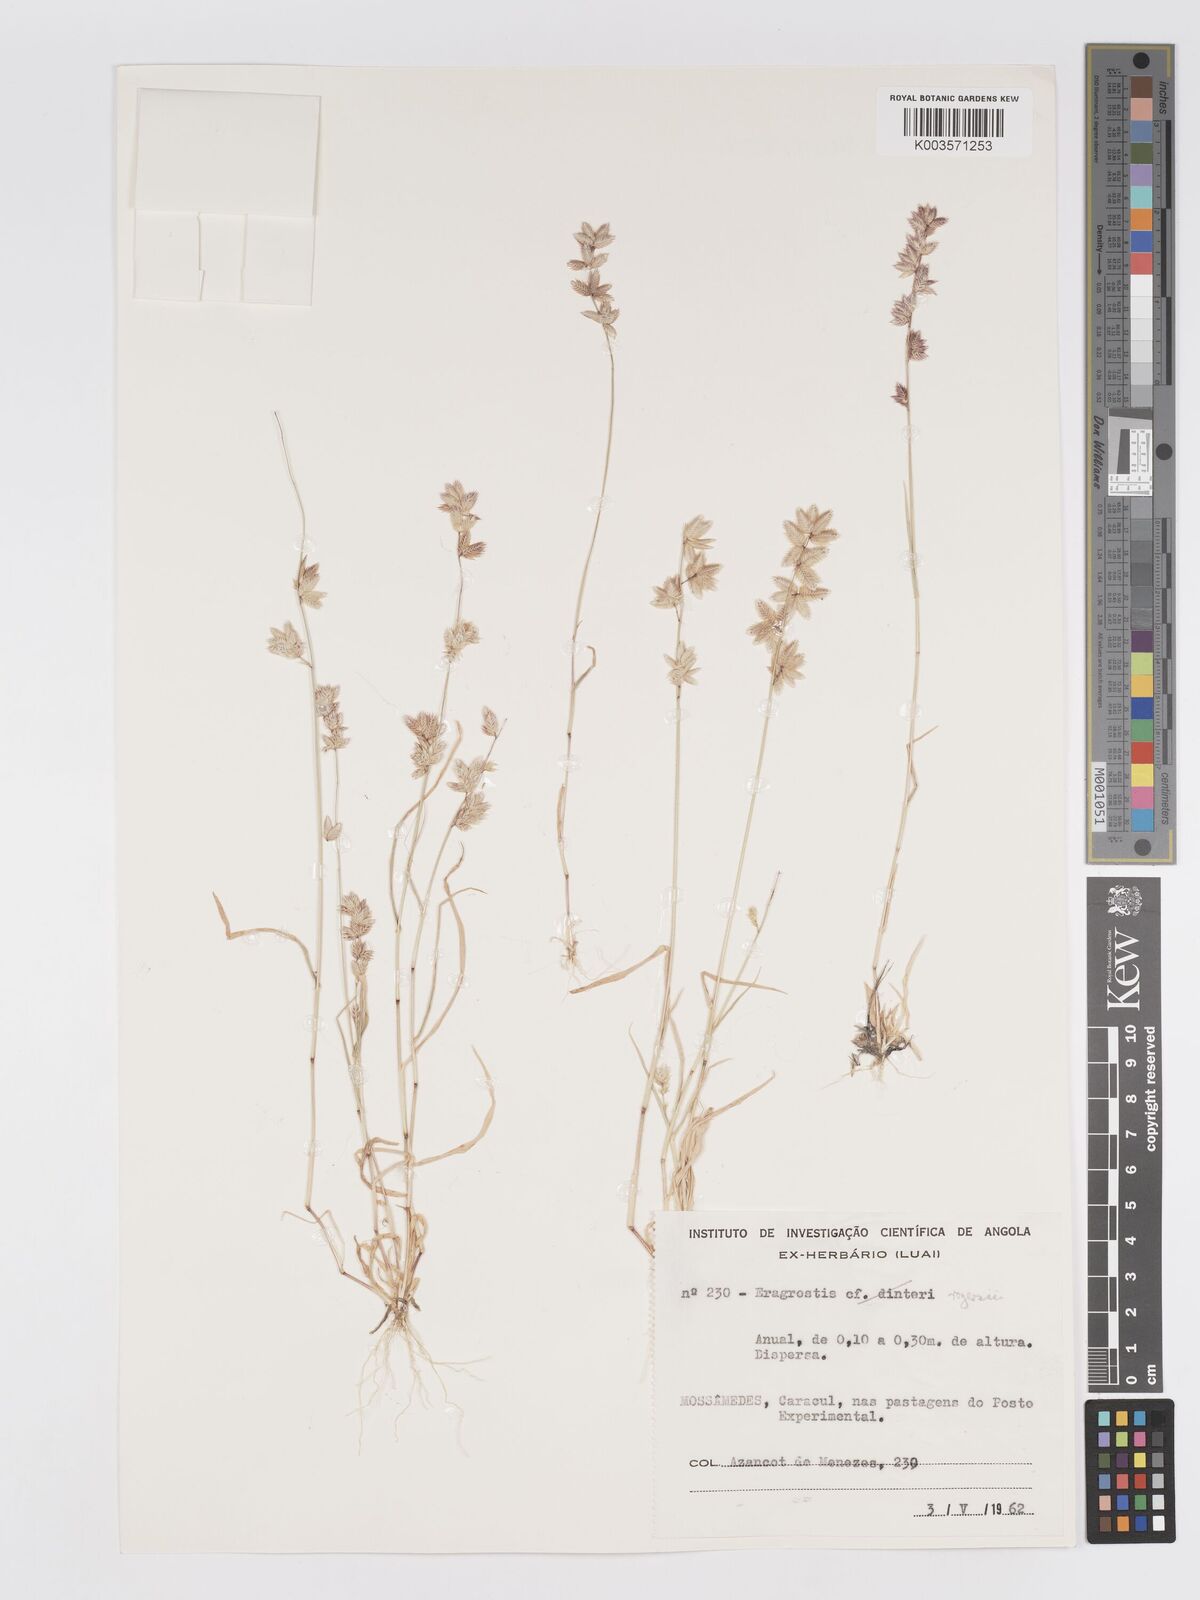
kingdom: Plantae
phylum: Tracheophyta
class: Liliopsida
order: Poales
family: Poaceae
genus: Eragrostis
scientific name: Eragrostis variegata
